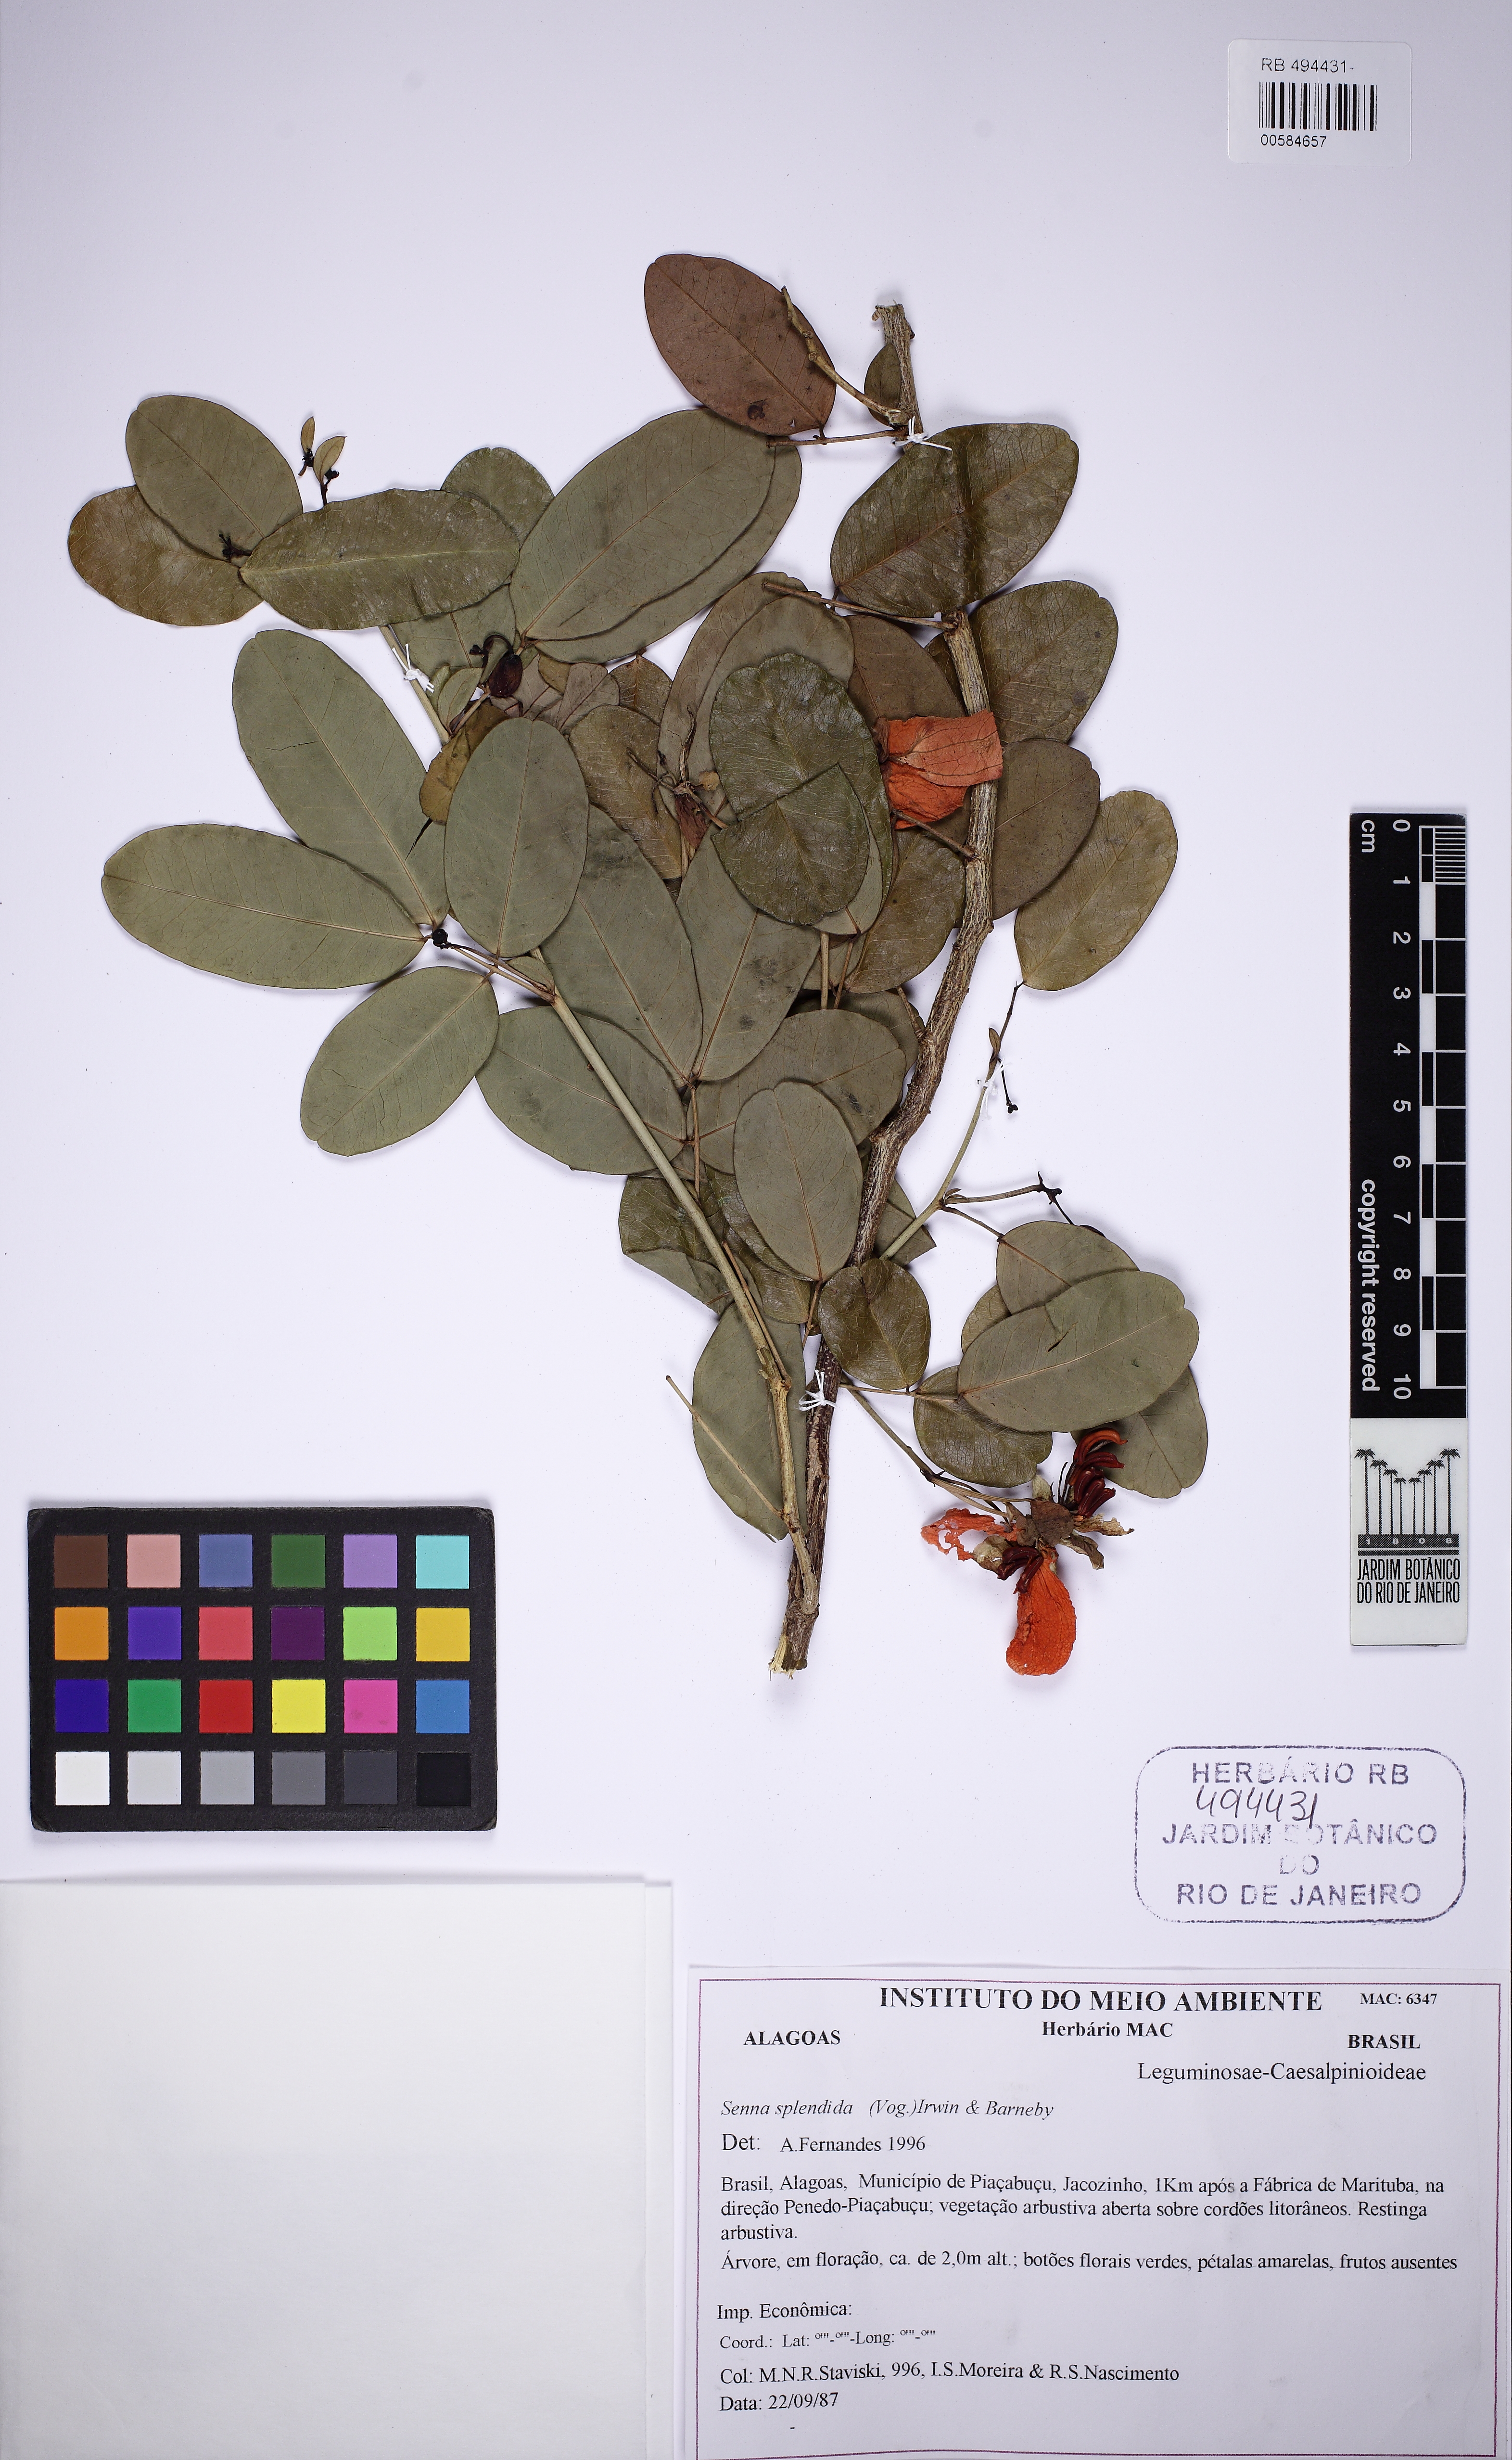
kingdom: Plantae
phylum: Tracheophyta
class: Magnoliopsida
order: Fabales
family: Fabaceae
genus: Senna
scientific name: Senna splendida
